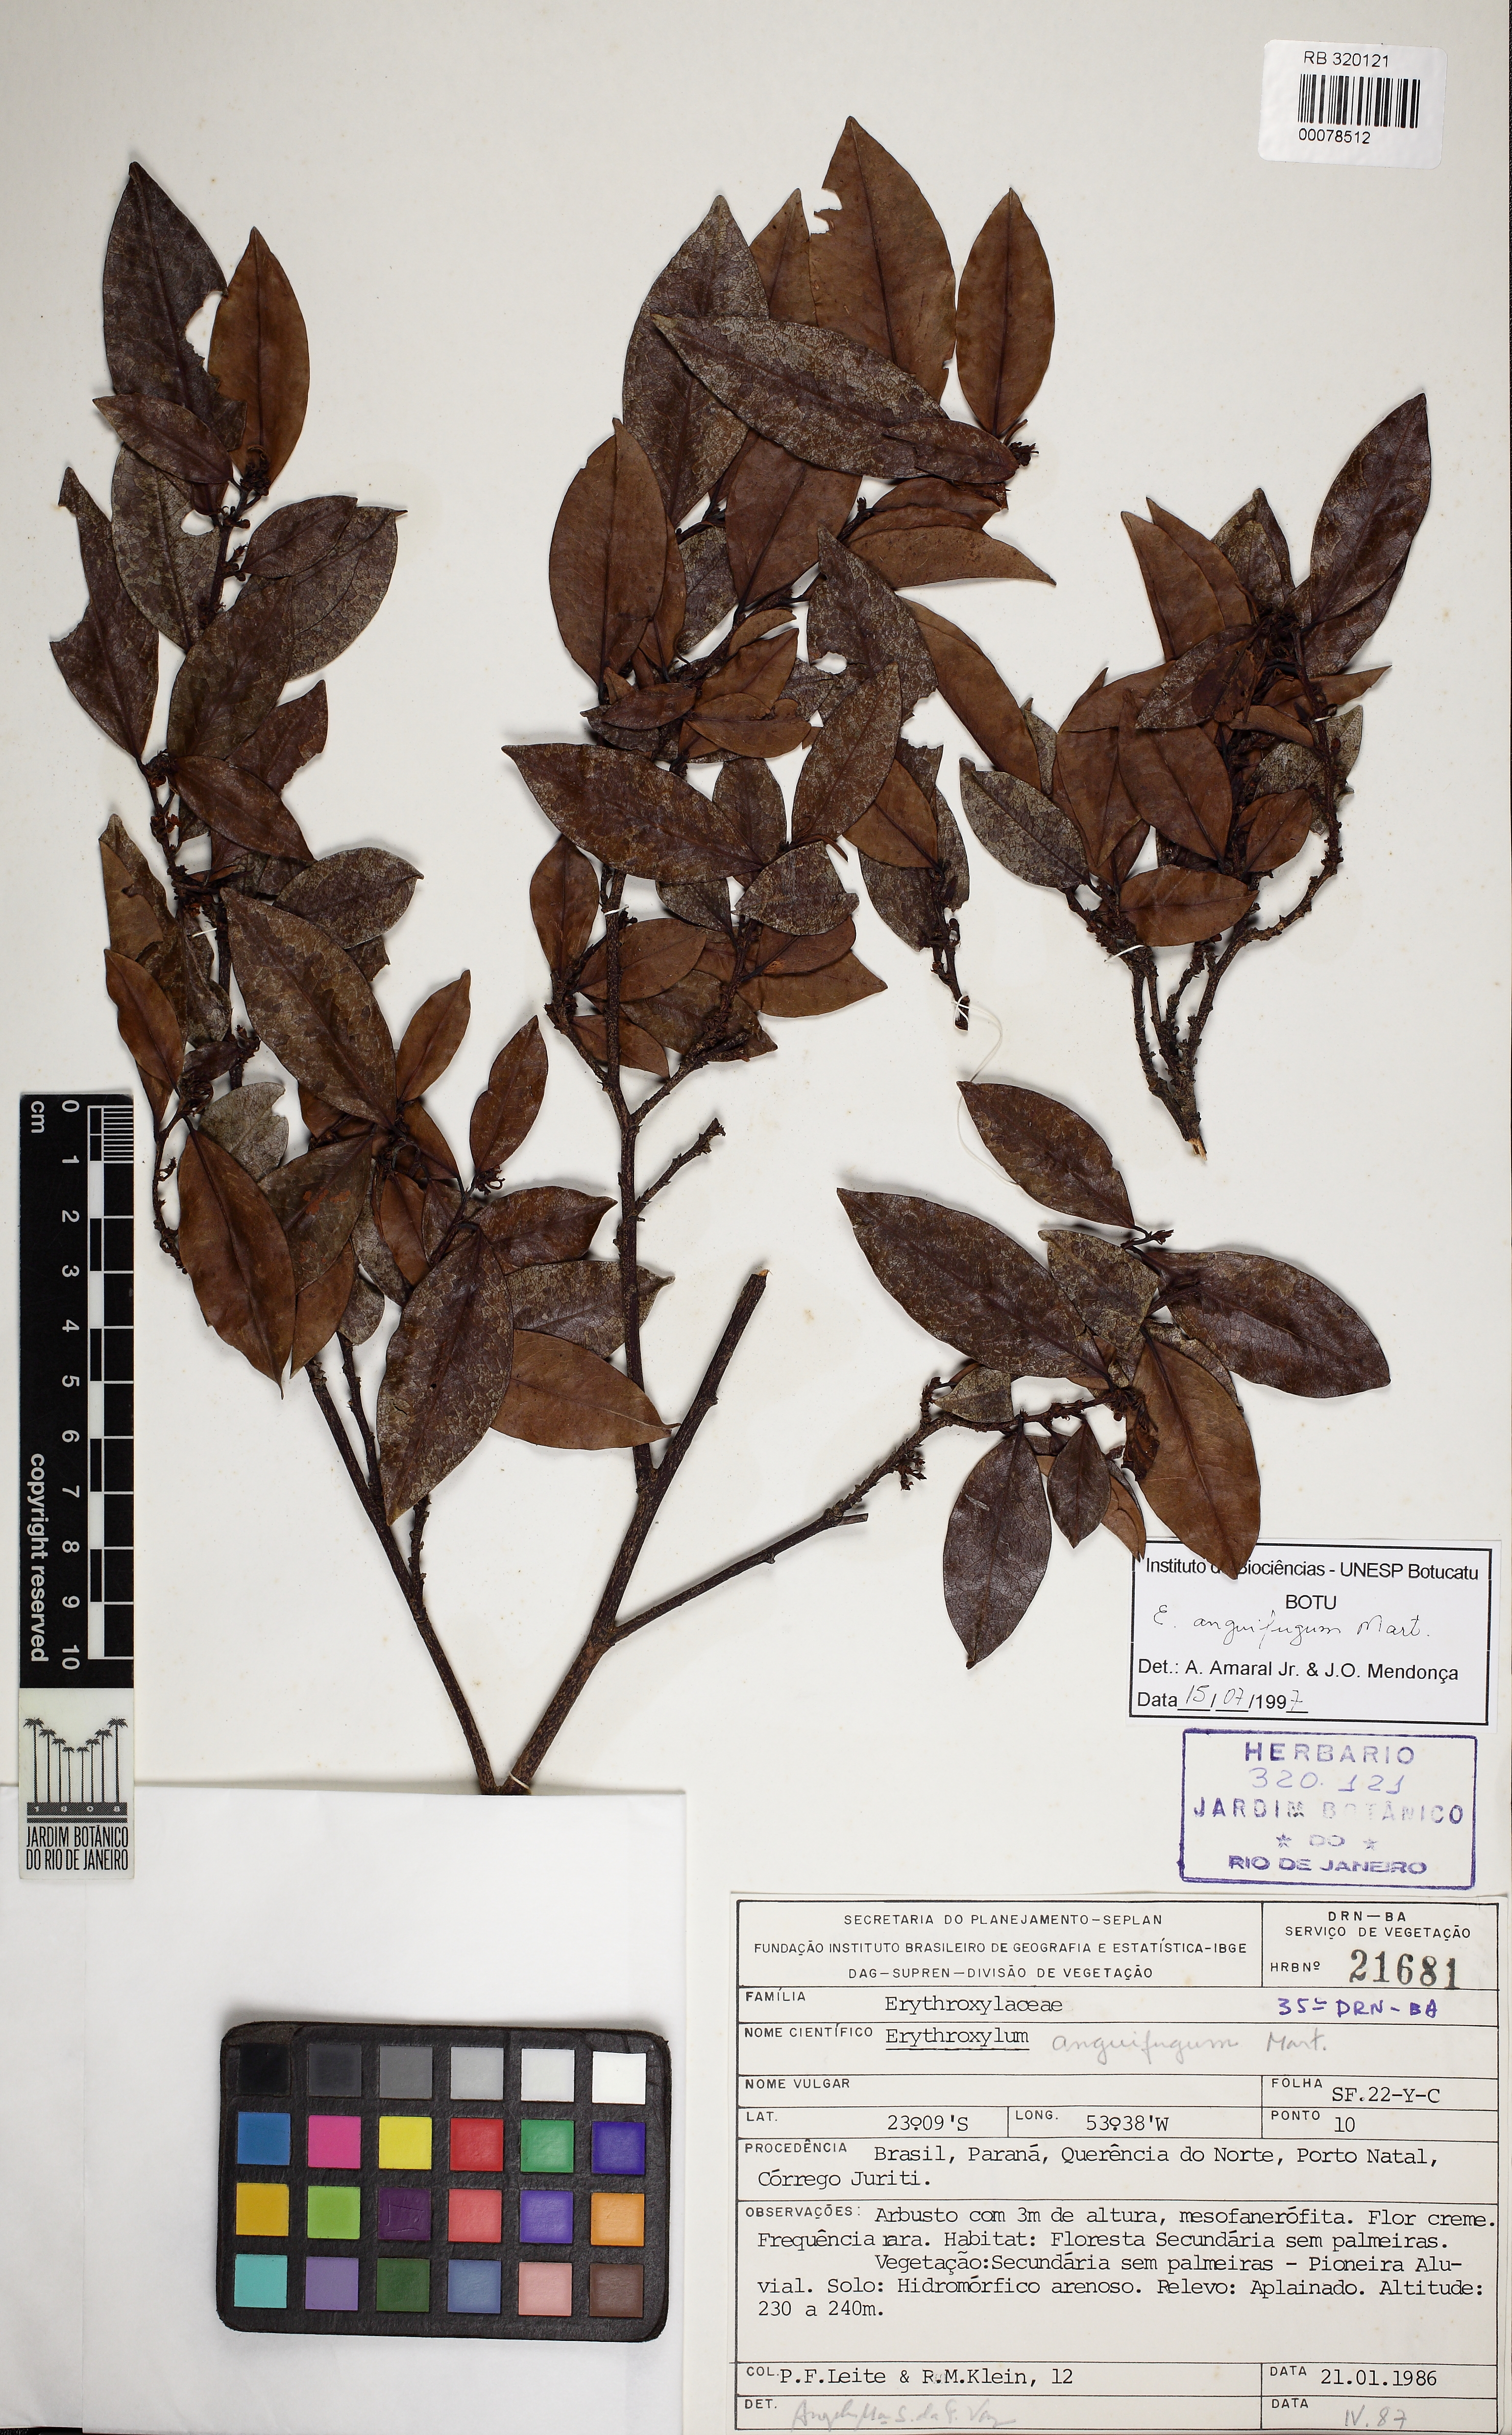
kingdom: Plantae
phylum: Tracheophyta
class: Magnoliopsida
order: Malpighiales
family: Erythroxylaceae
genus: Erythroxylum
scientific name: Erythroxylum anguifugum
